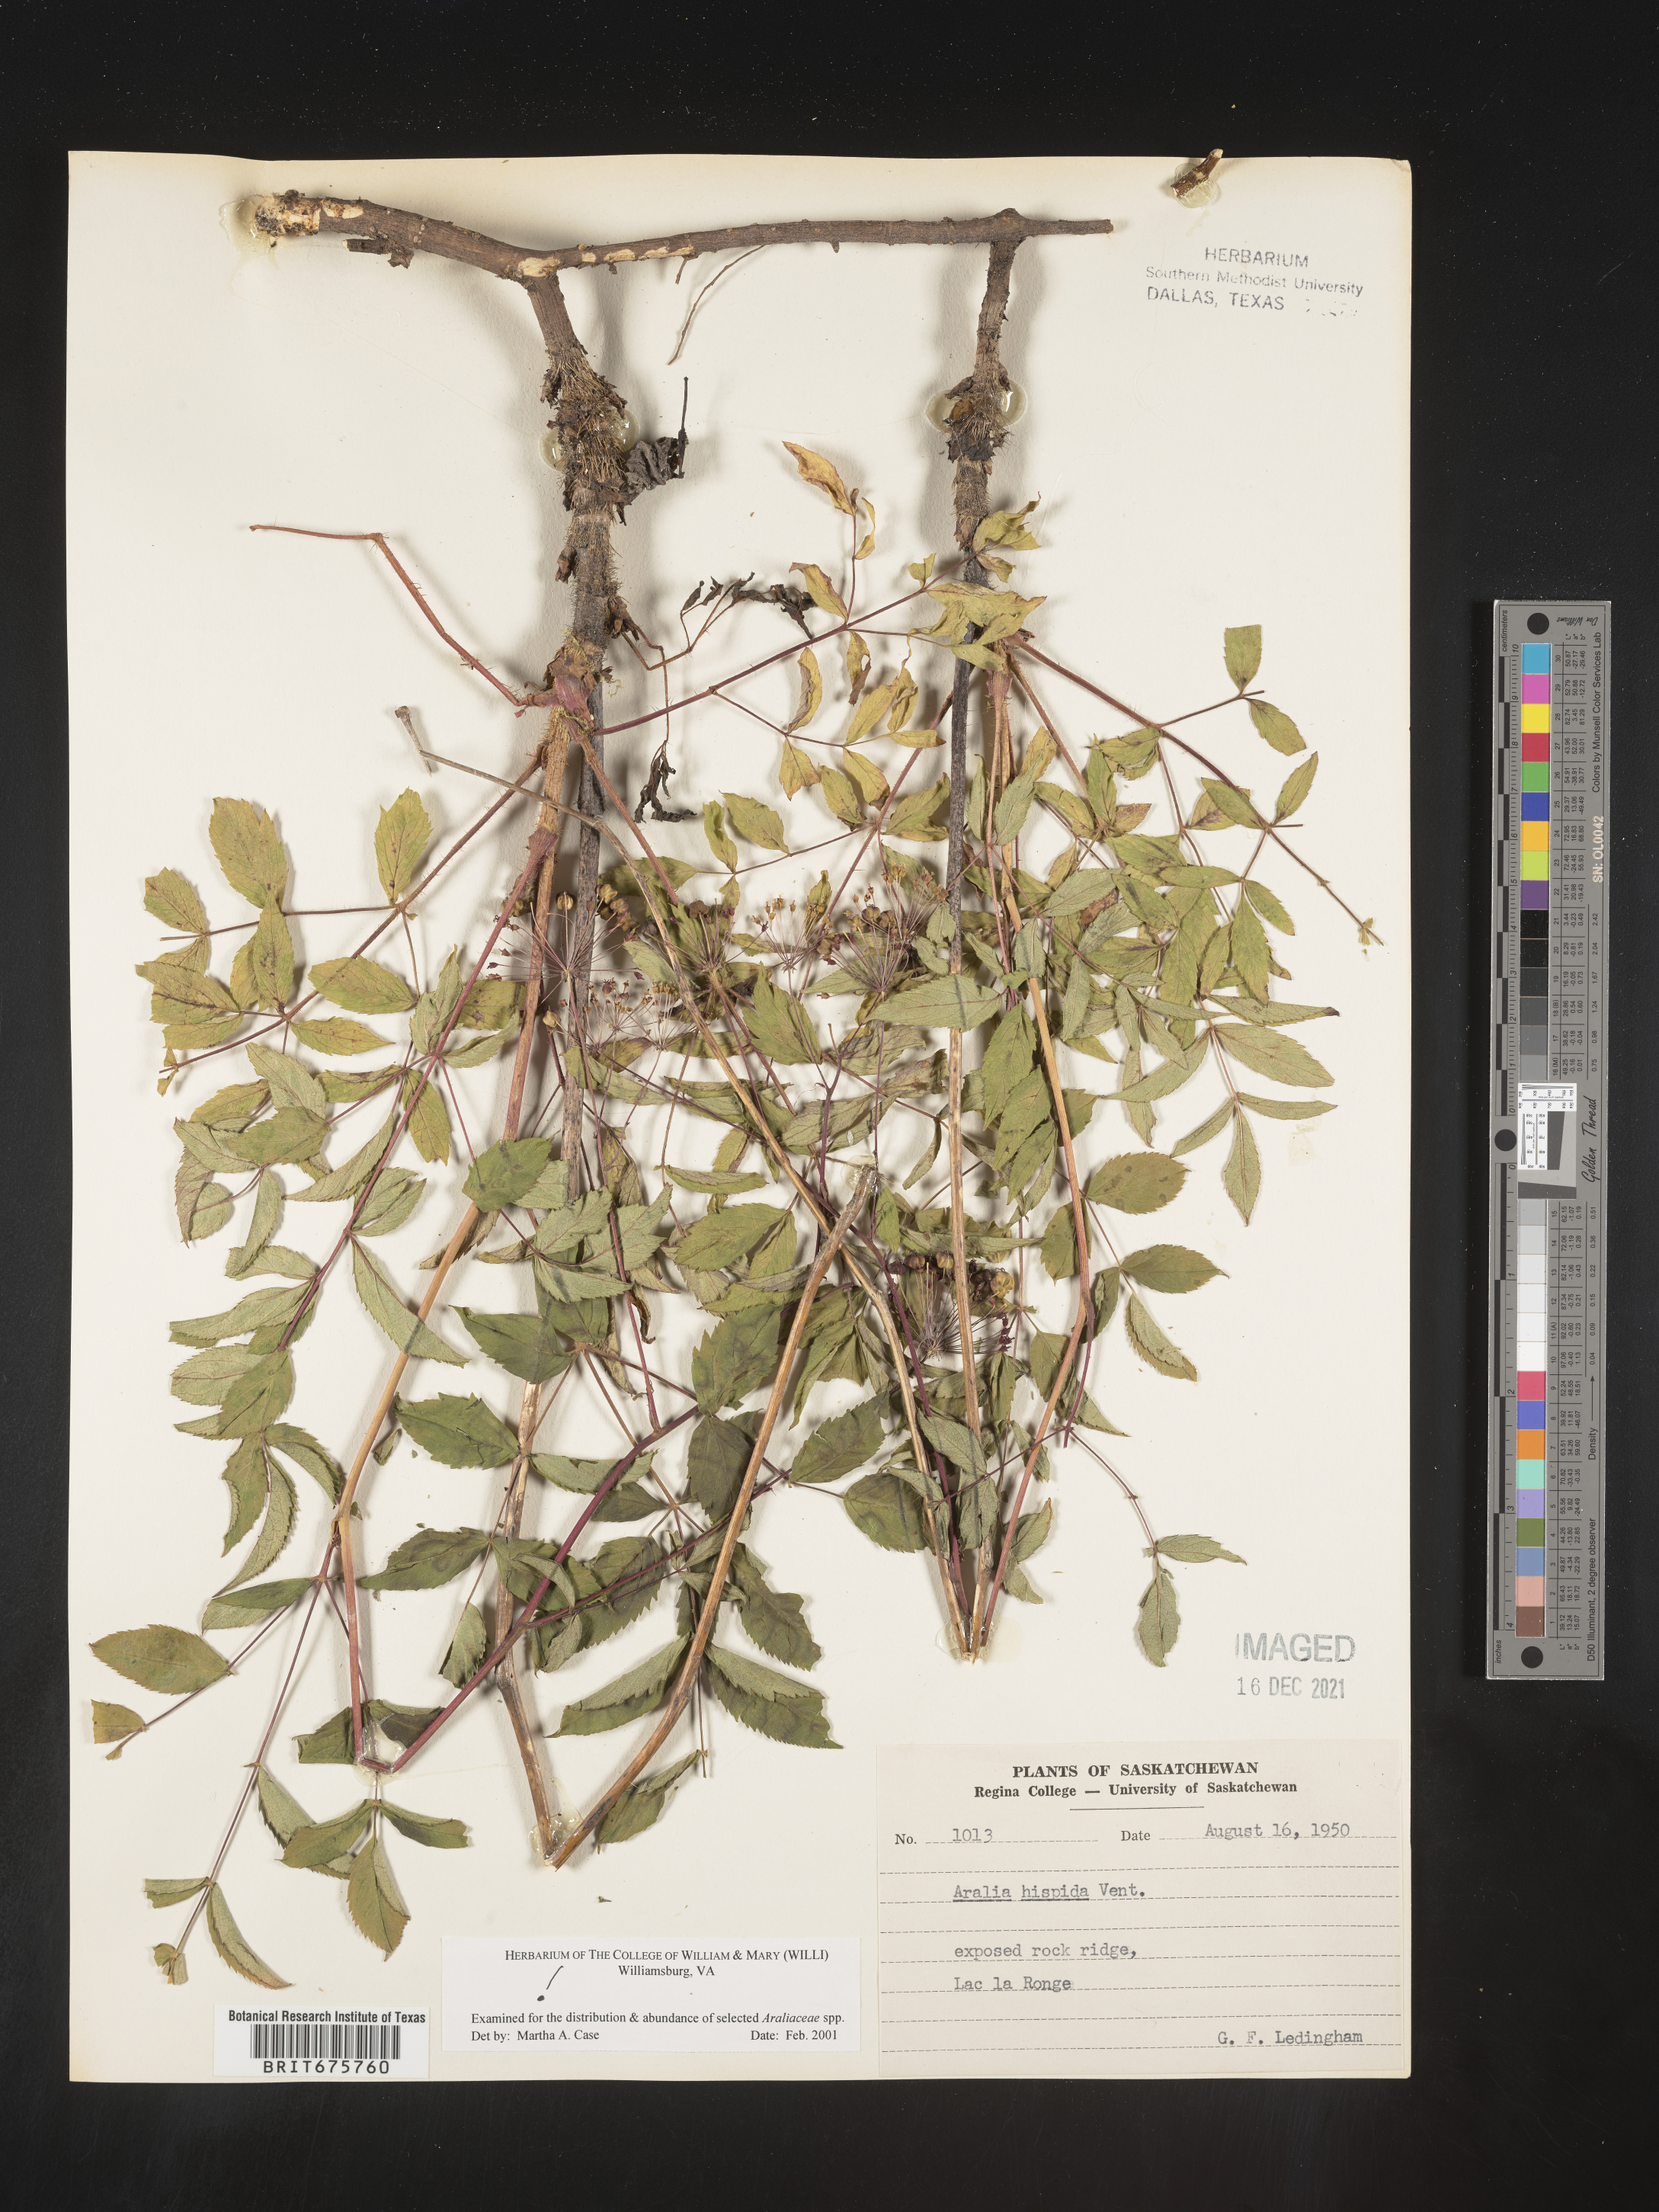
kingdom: Plantae
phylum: Tracheophyta
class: Magnoliopsida
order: Apiales
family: Araliaceae
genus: Aralia
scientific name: Aralia hispida
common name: Bristly sarsaparilla
